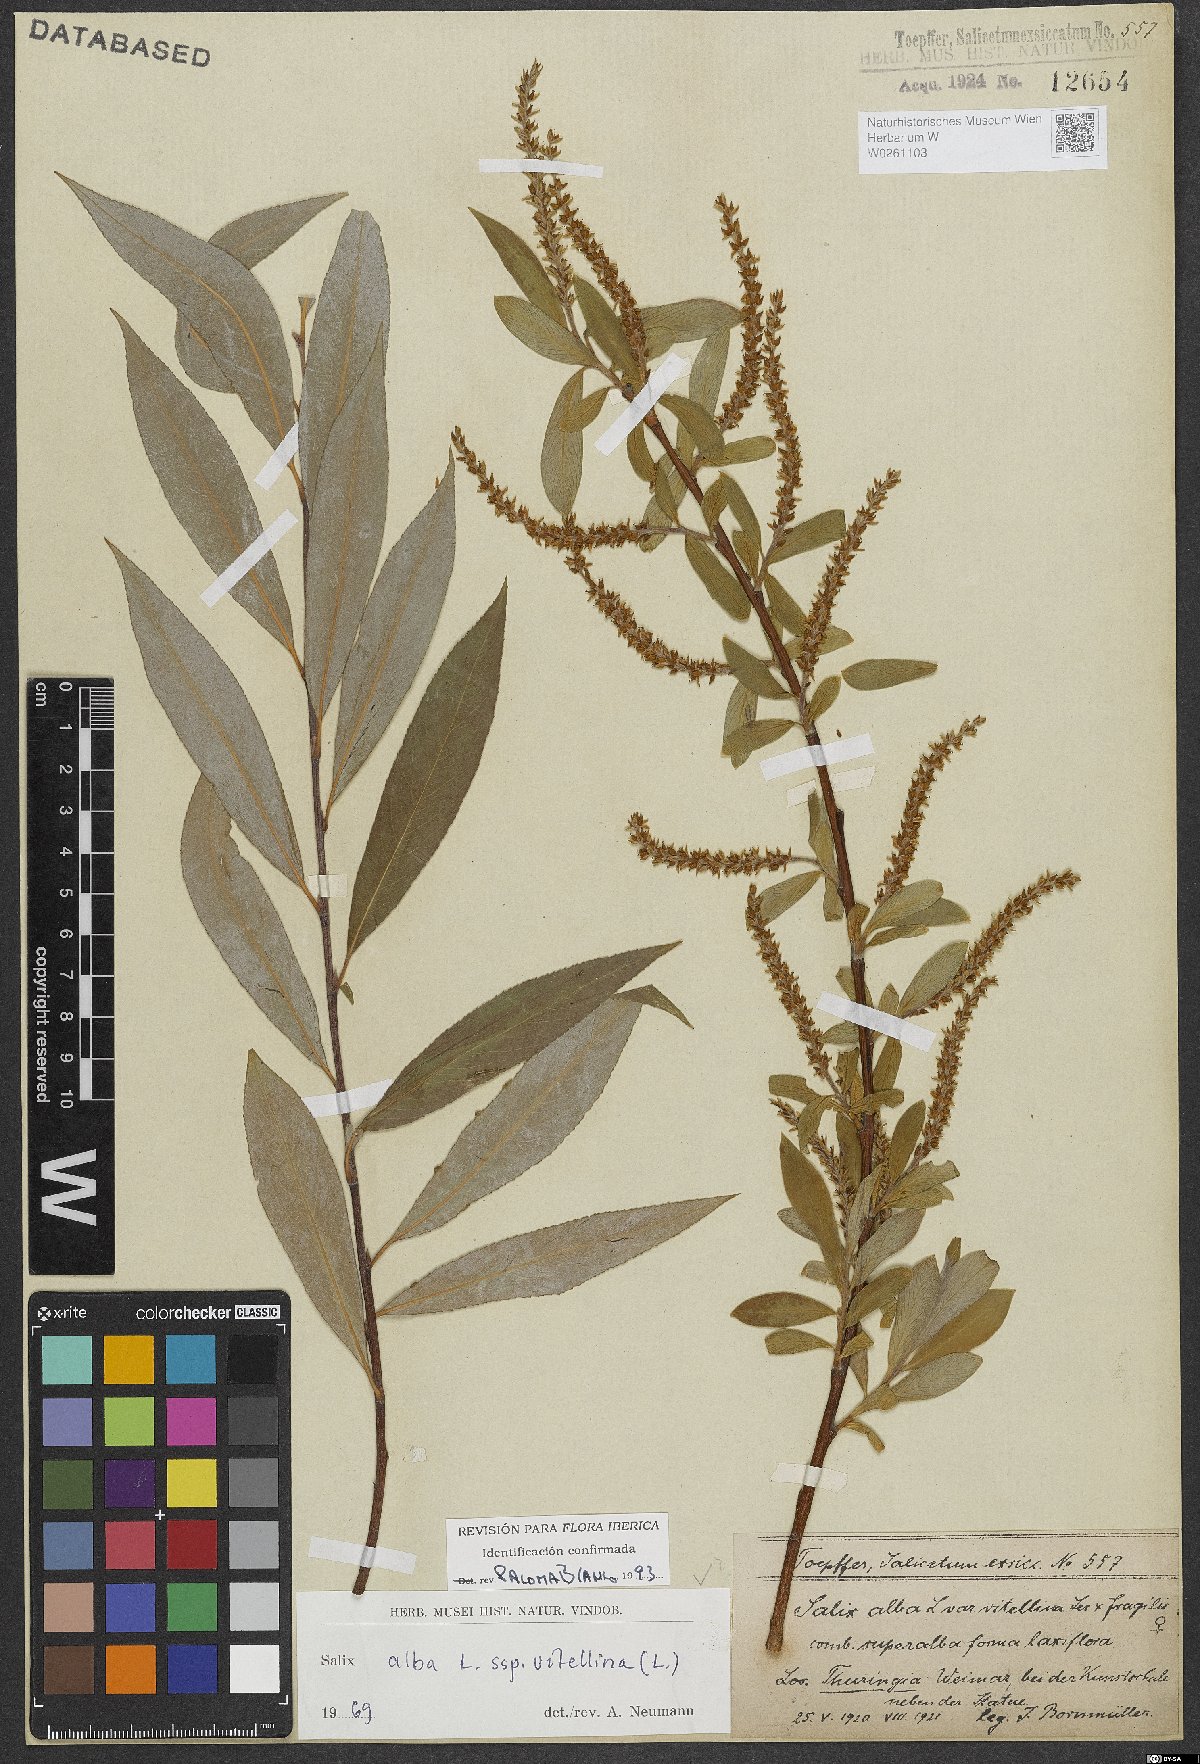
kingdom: Plantae
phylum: Tracheophyta
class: Magnoliopsida
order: Malpighiales
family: Salicaceae
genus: Salix
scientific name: Salix alba
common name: White willow
